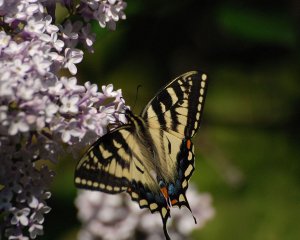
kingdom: Animalia
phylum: Arthropoda
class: Insecta
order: Lepidoptera
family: Papilionidae
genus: Pterourus
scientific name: Pterourus canadensis
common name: Canadian Tiger Swallowtail
